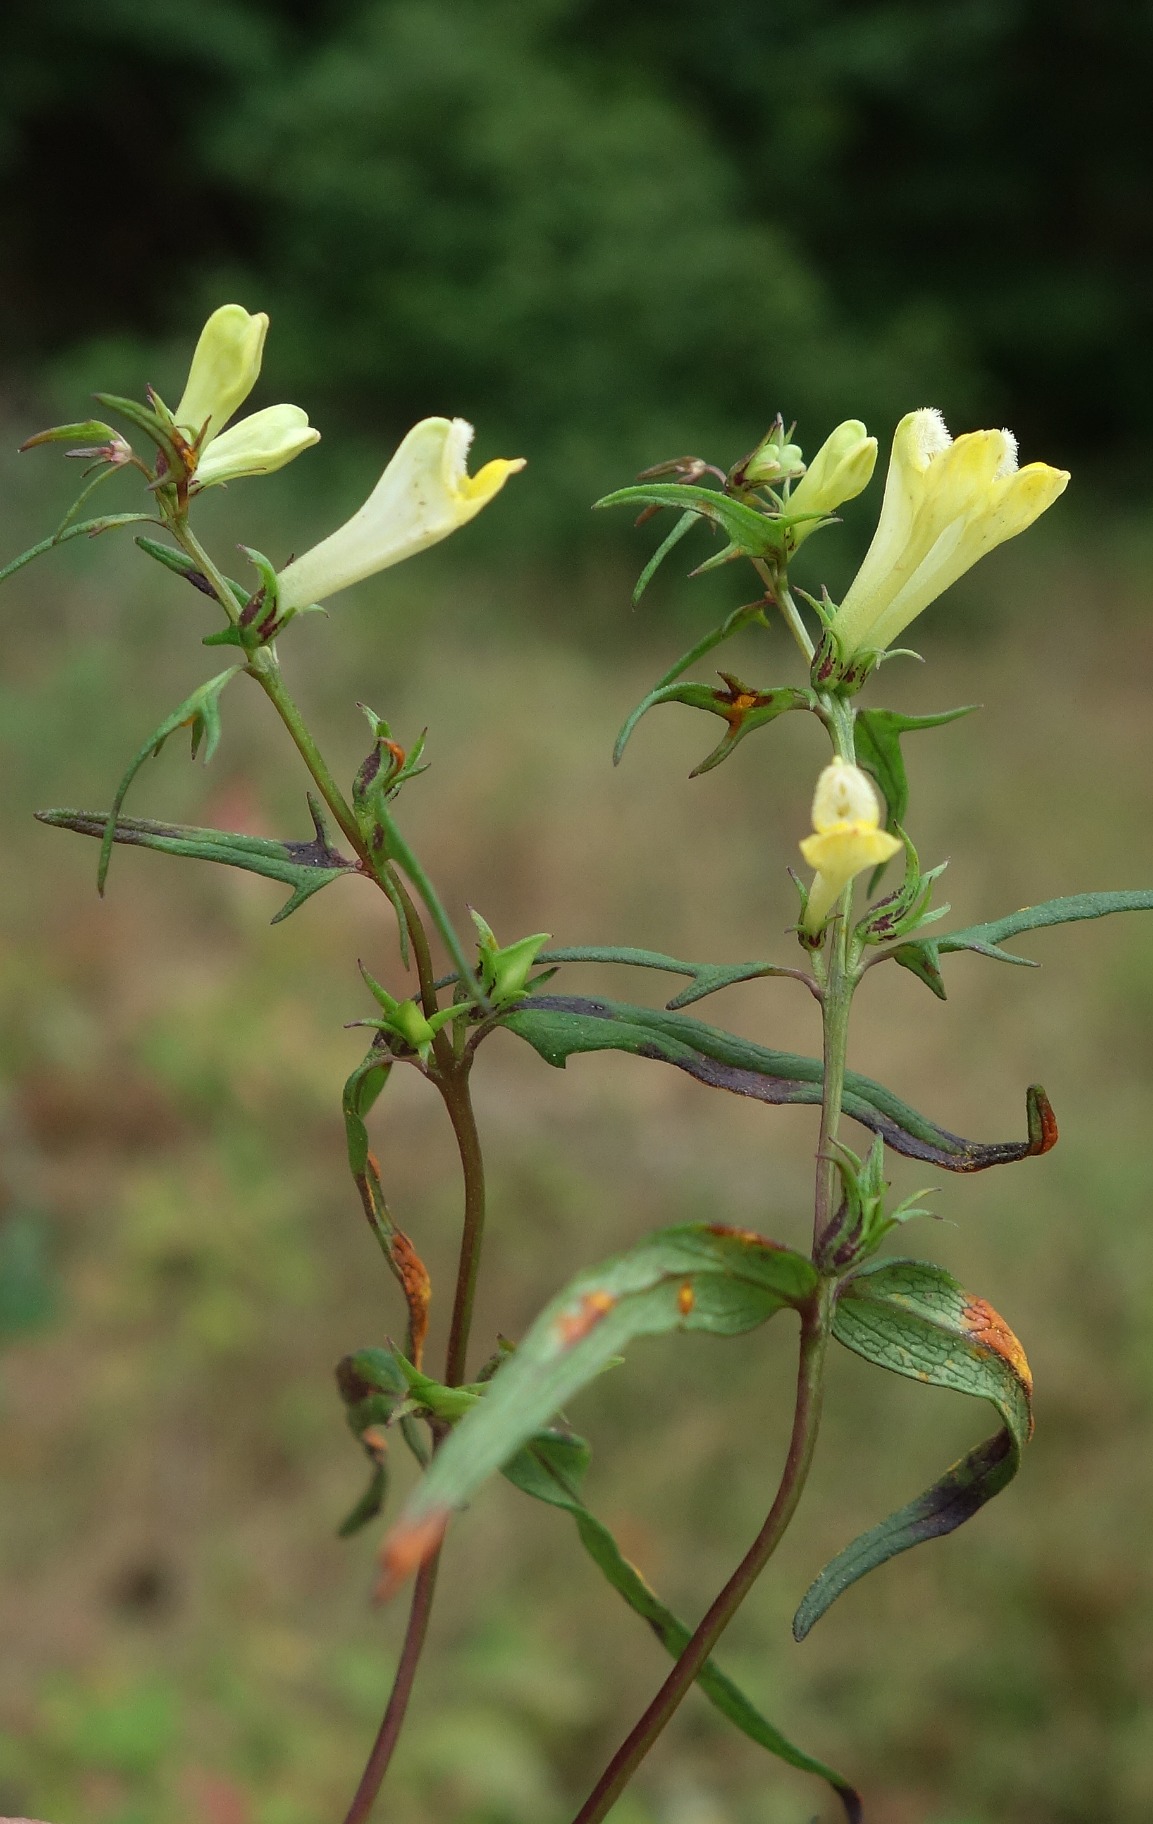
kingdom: Plantae
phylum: Tracheophyta
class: Magnoliopsida
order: Lamiales
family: Orobanchaceae
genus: Melampyrum
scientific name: Melampyrum pratense
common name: Almindelig kohvede
